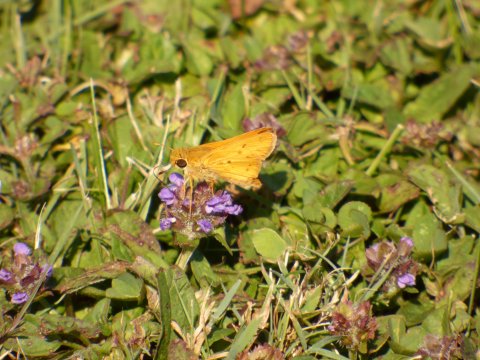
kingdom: Animalia
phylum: Arthropoda
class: Insecta
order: Lepidoptera
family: Hesperiidae
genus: Hylephila
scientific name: Hylephila phyleus
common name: Fiery Skipper
